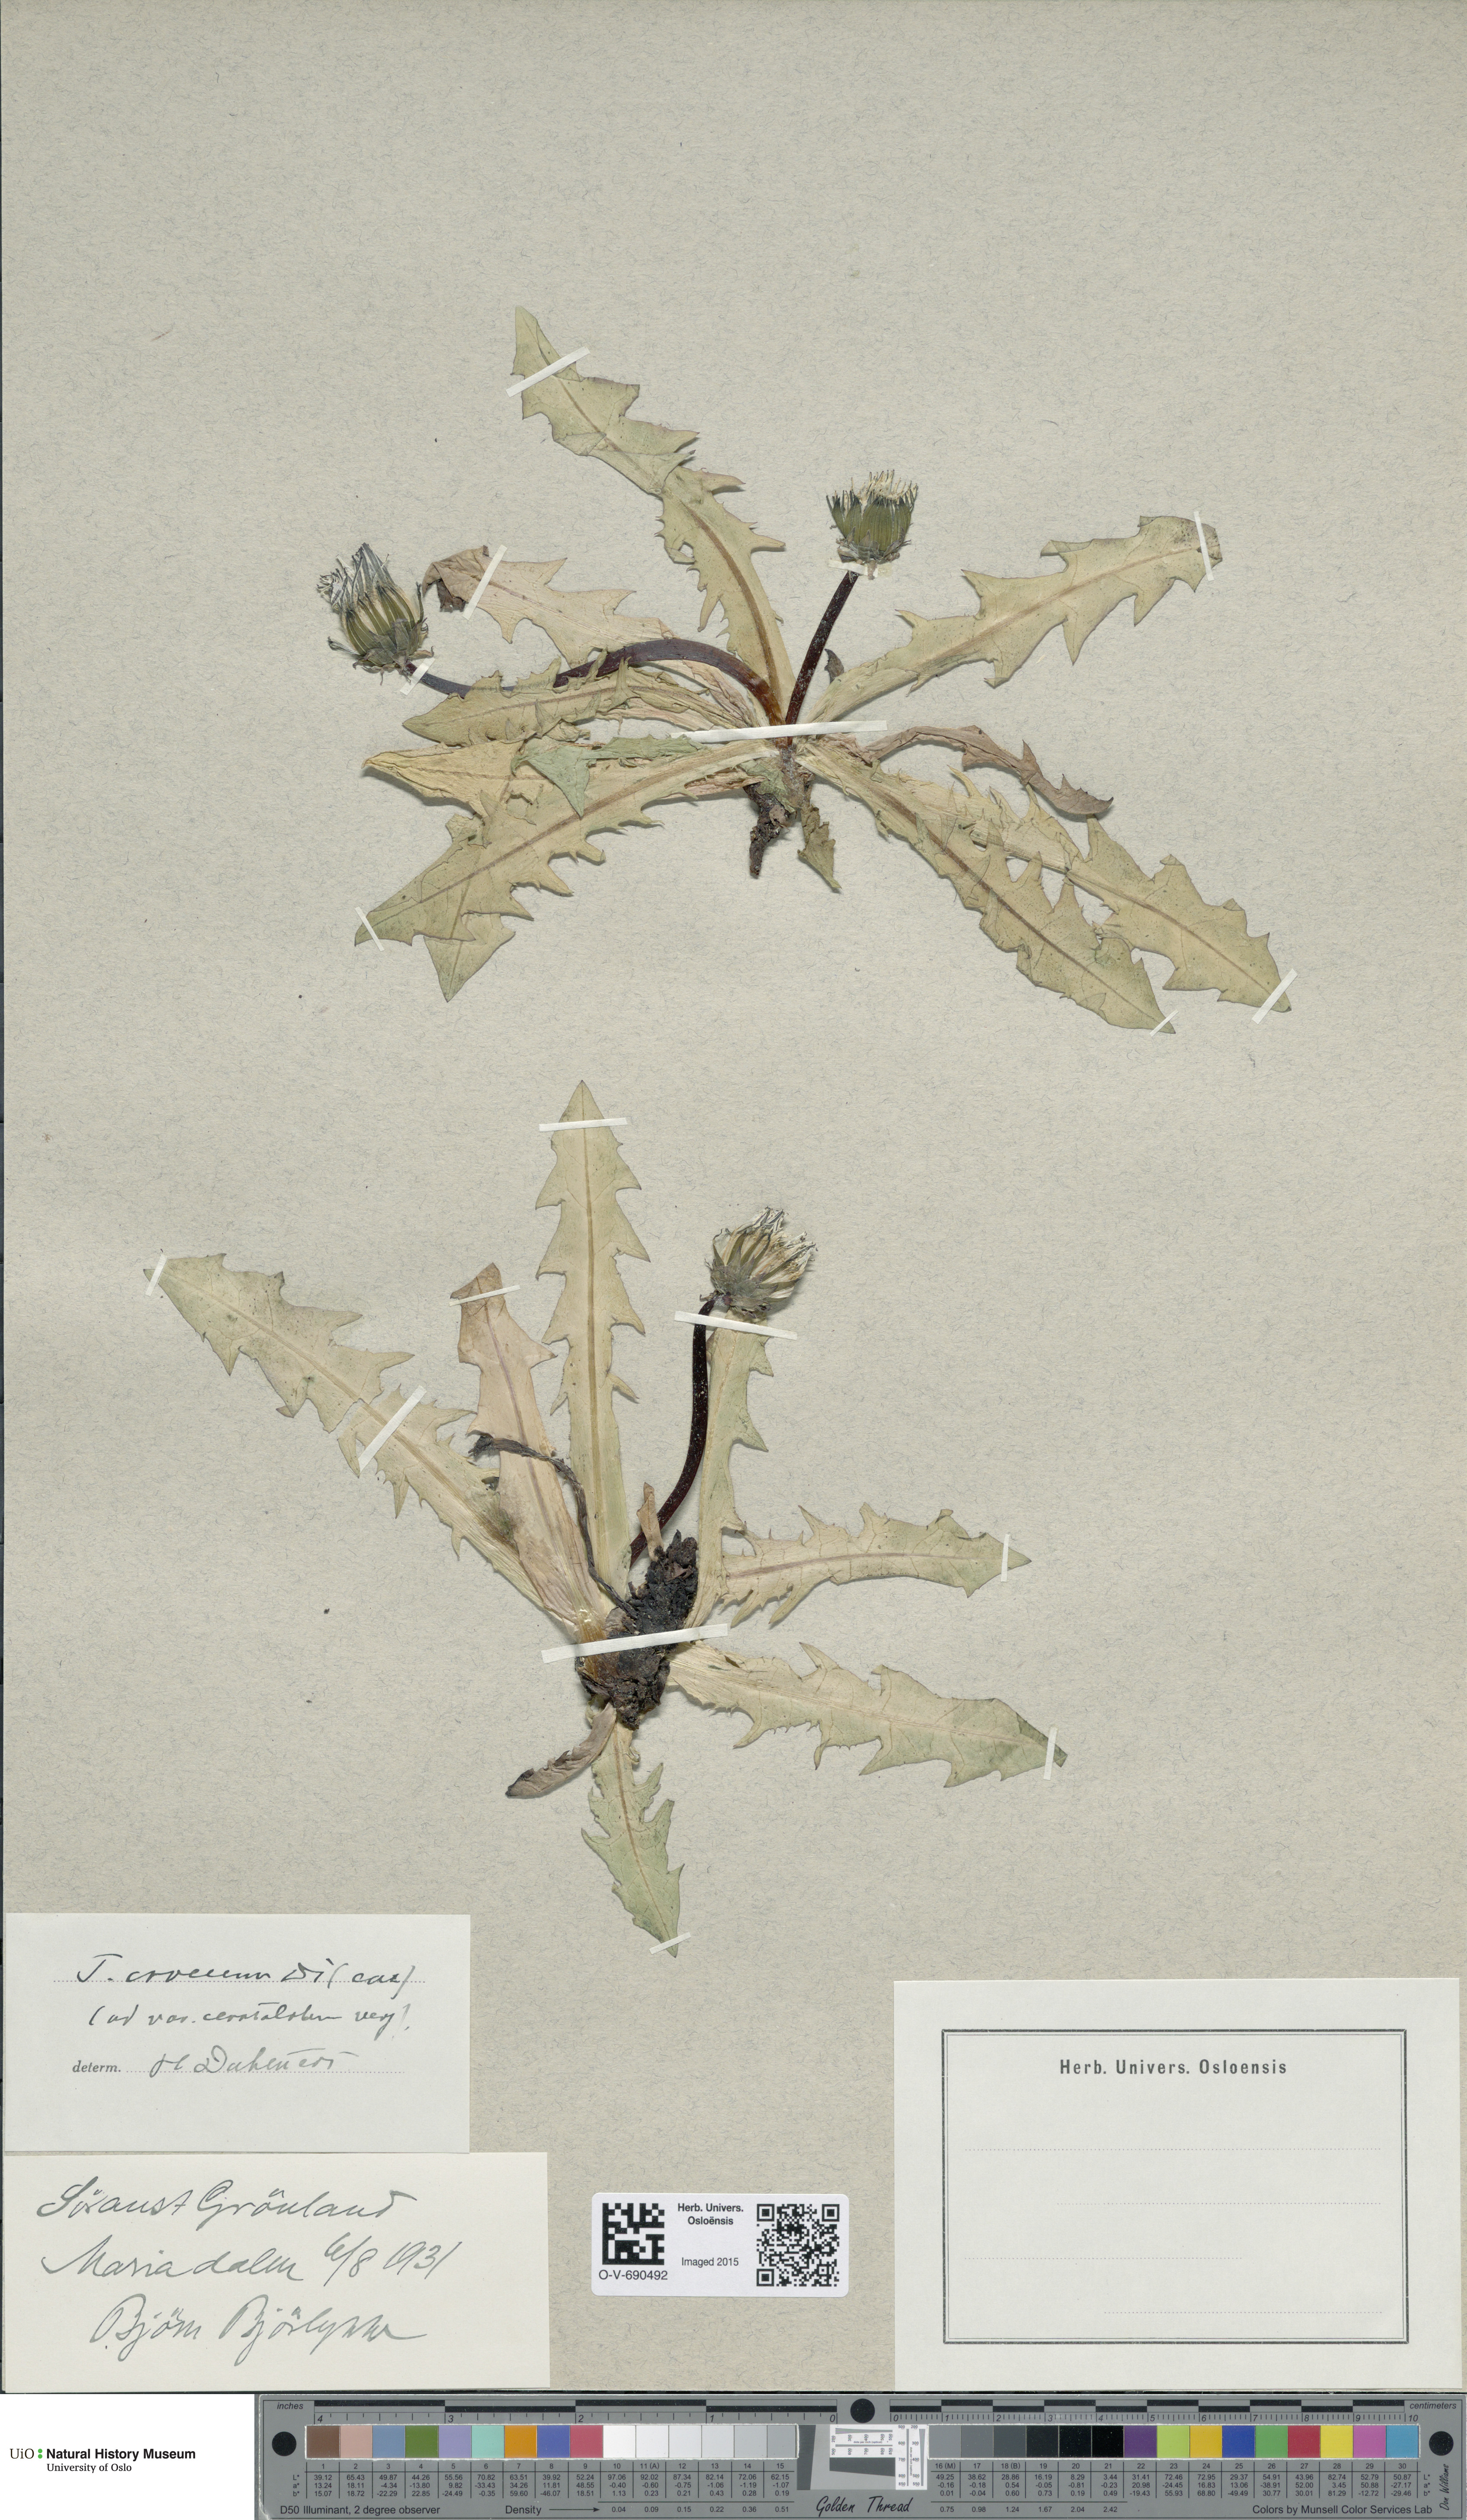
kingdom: Plantae
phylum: Tracheophyta
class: Magnoliopsida
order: Asterales
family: Asteraceae
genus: Taraxacum
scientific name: Taraxacum croceum
